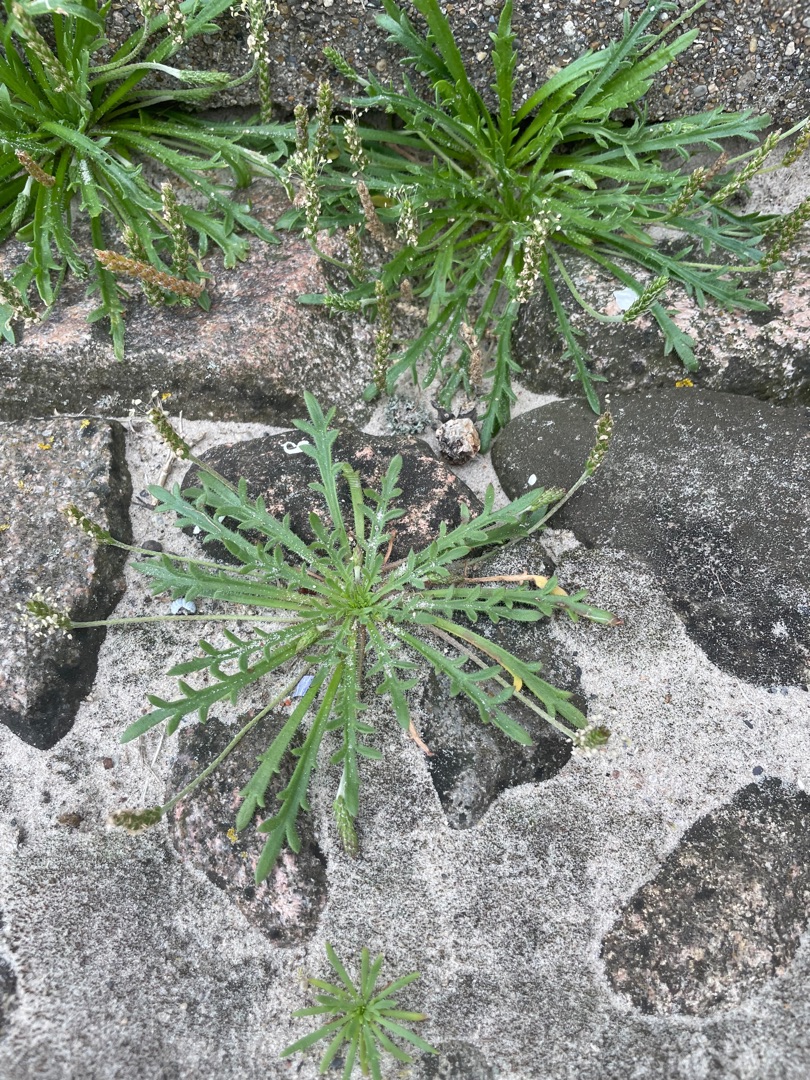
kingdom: Plantae
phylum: Tracheophyta
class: Magnoliopsida
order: Lamiales
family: Plantaginaceae
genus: Plantago
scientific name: Plantago coronopus
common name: Fliget vejbred
